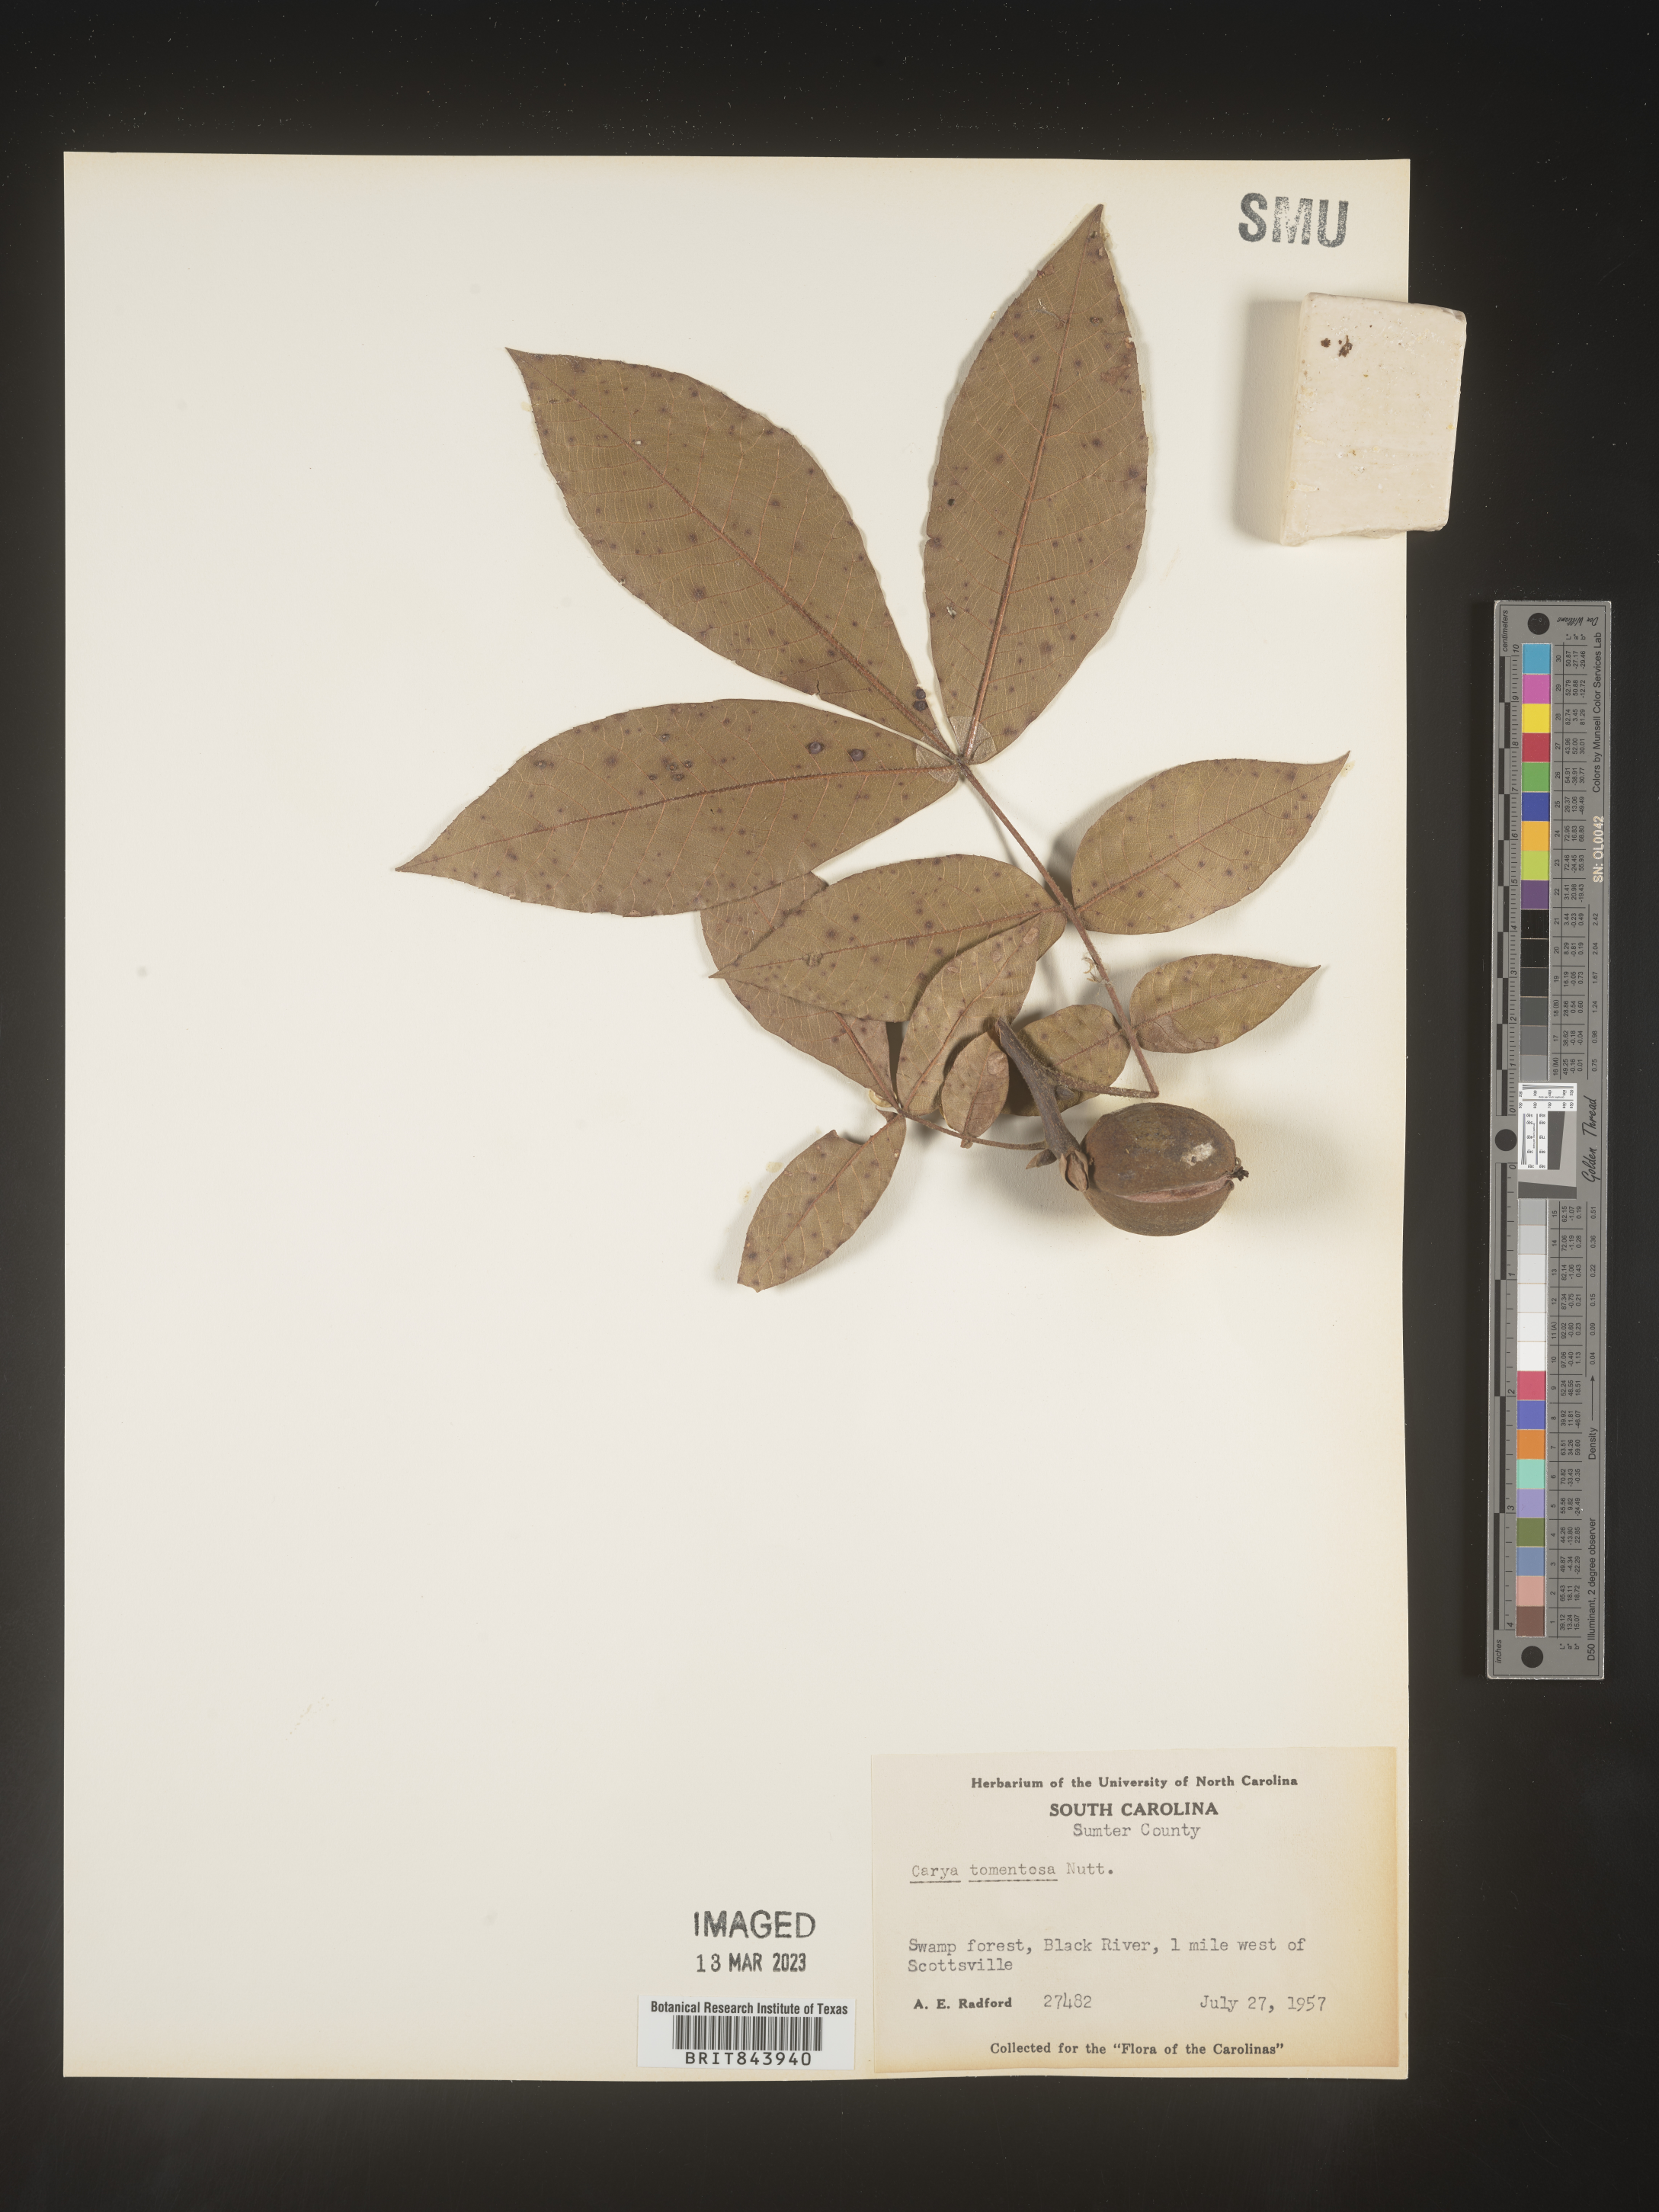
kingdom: Plantae
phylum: Tracheophyta
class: Magnoliopsida
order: Fagales
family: Juglandaceae
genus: Carya
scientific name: Carya alba
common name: Mockernut hickory
